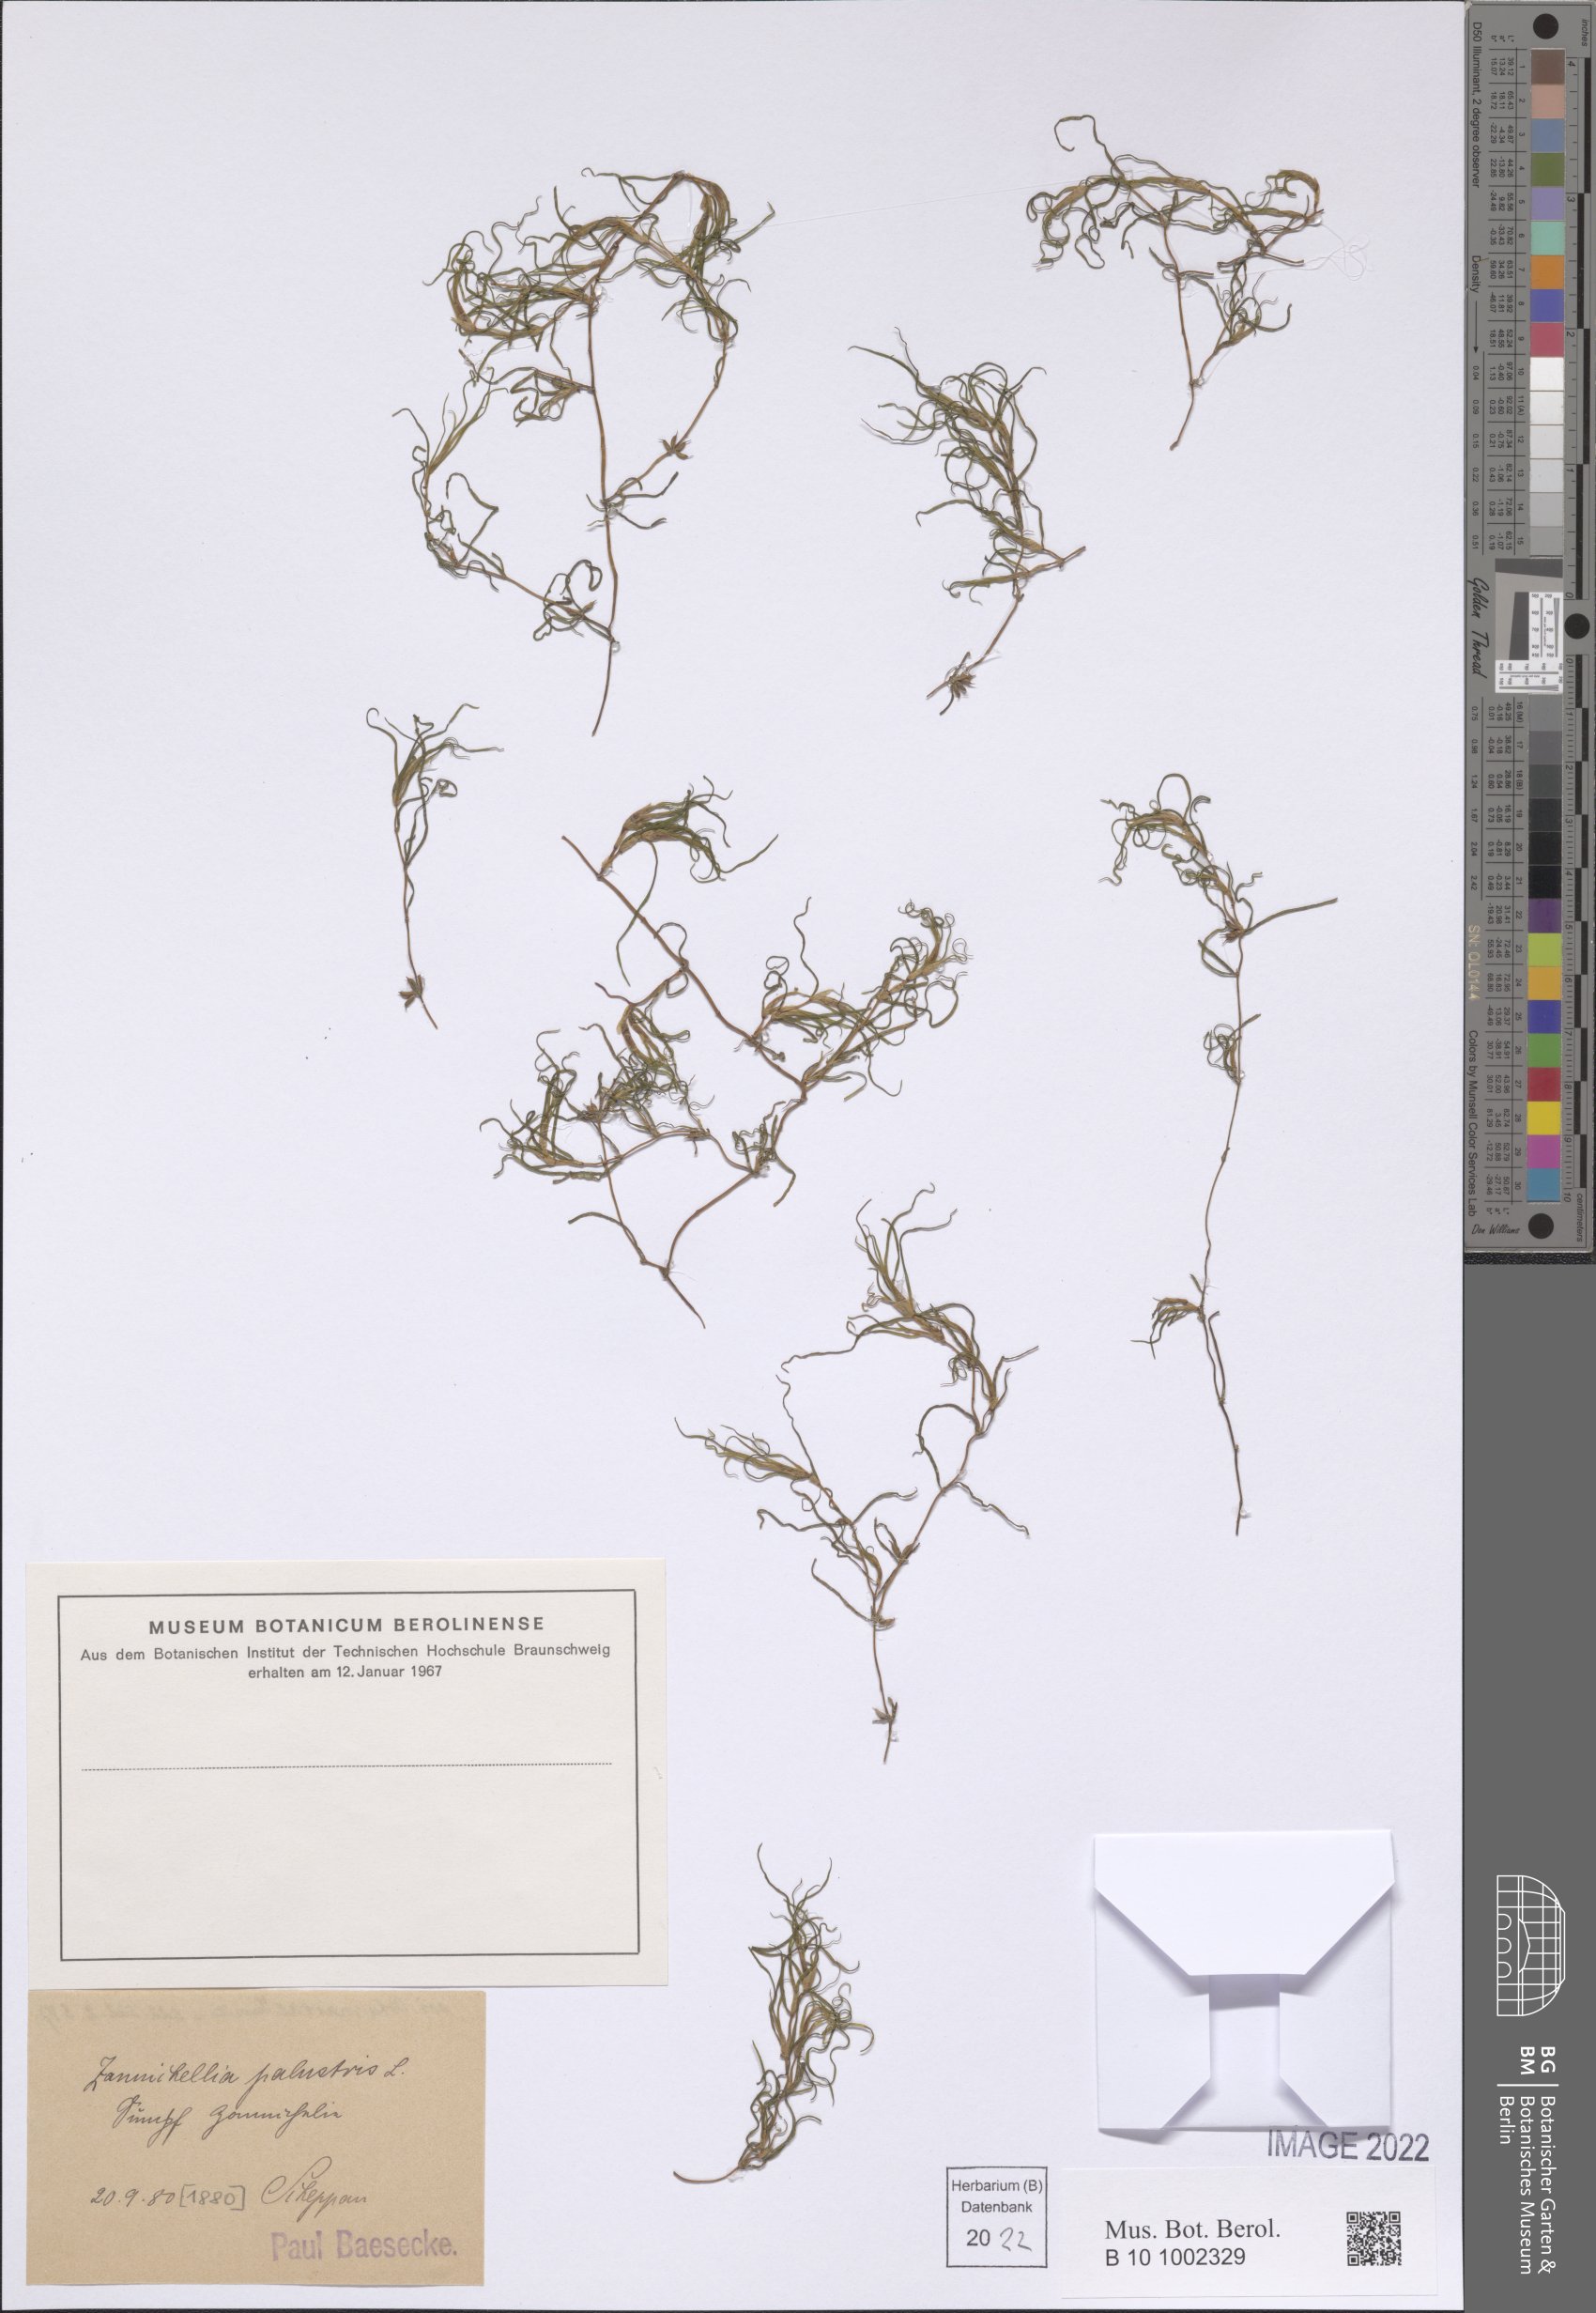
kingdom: Plantae
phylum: Tracheophyta
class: Liliopsida
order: Alismatales
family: Potamogetonaceae
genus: Zannichellia
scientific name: Zannichellia palustris
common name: Horned pondweed
